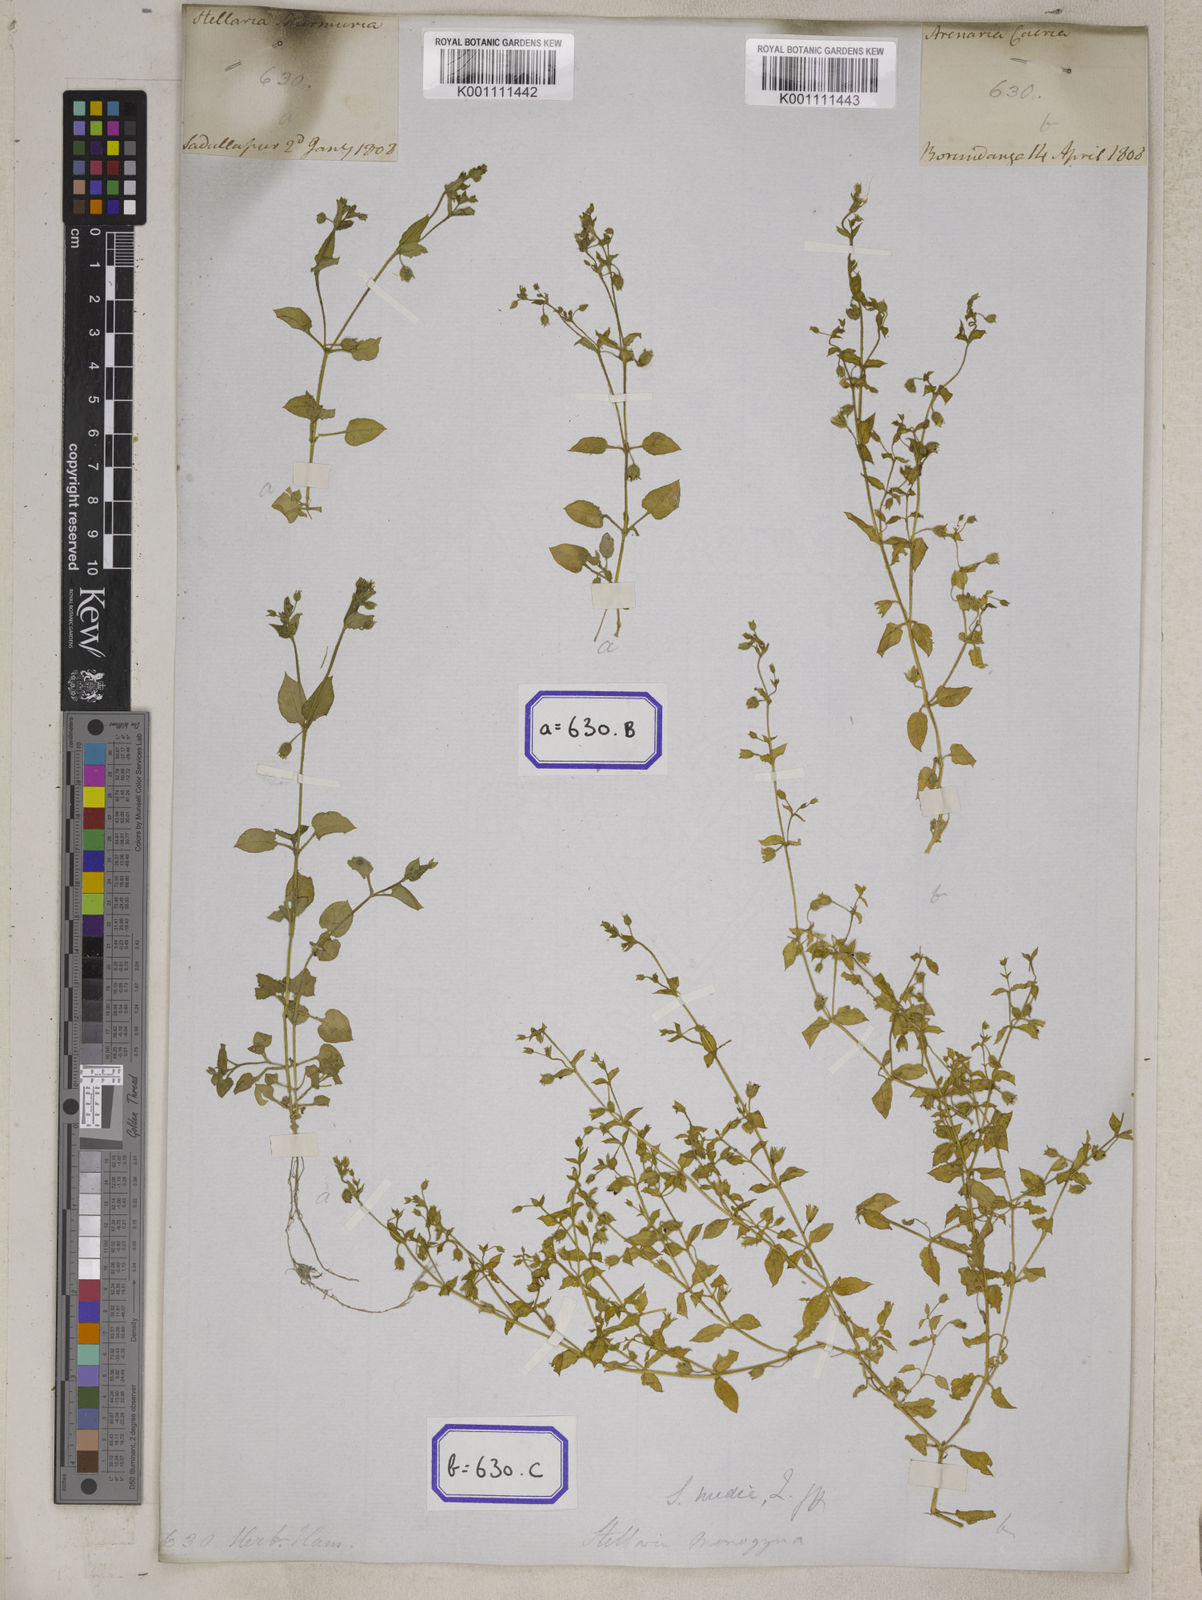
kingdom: Plantae
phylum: Tracheophyta
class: Magnoliopsida
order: Caryophyllales
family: Caryophyllaceae
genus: Spergula
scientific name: Spergula
